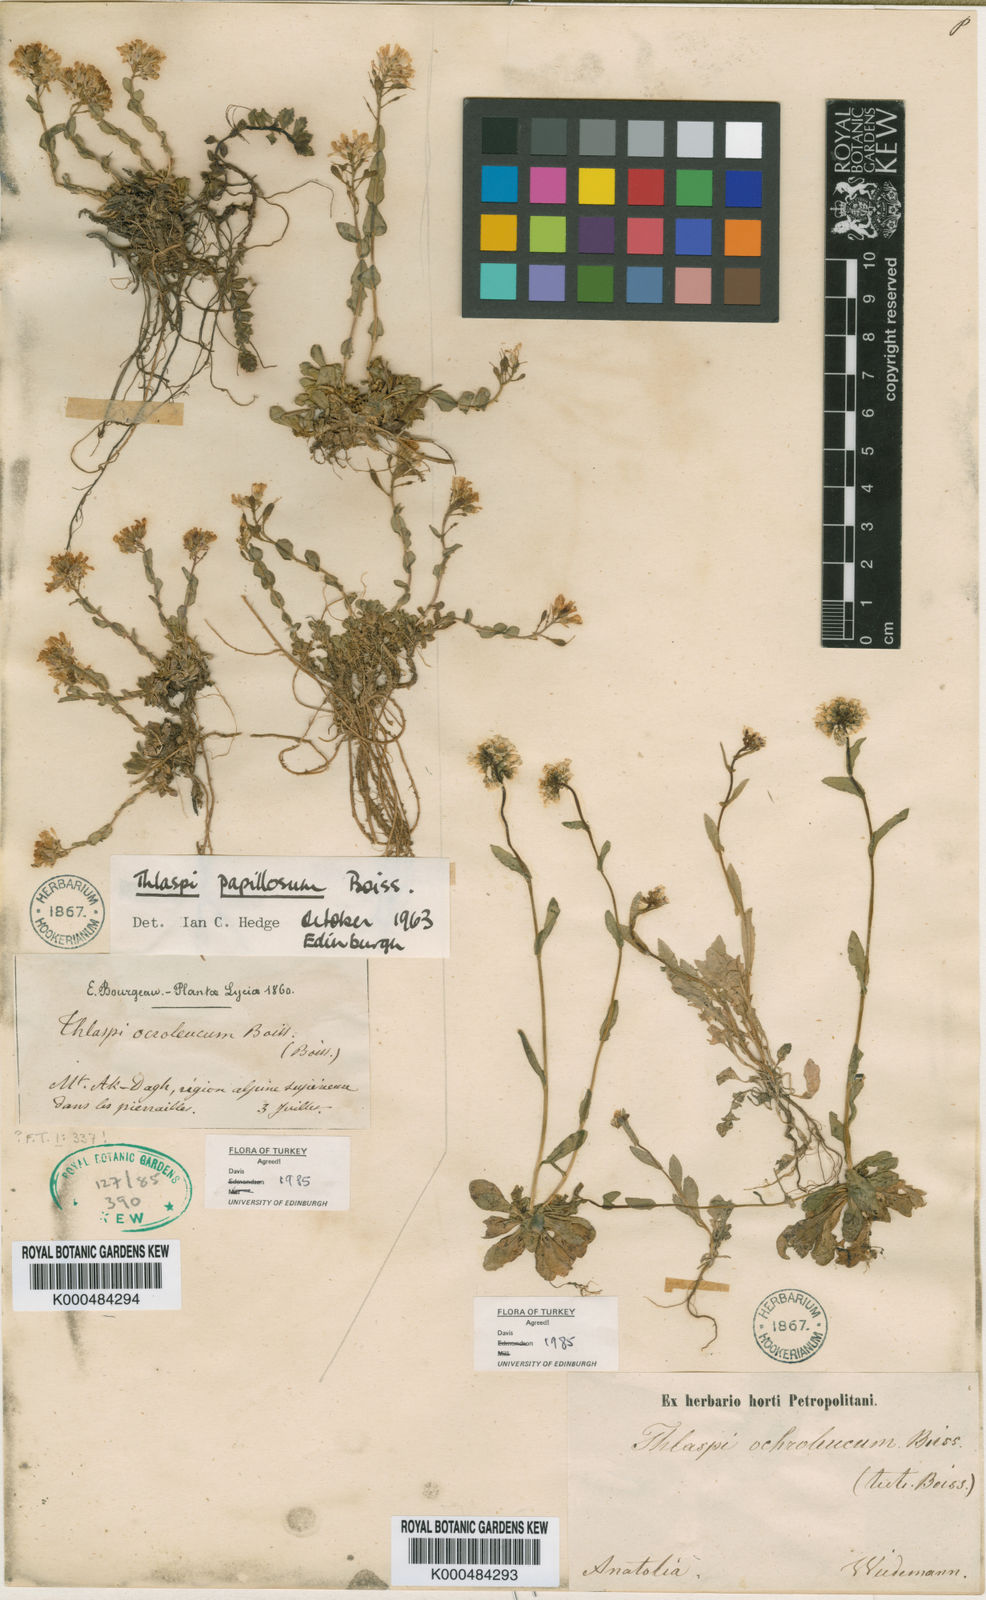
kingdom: Plantae
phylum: Tracheophyta
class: Magnoliopsida
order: Brassicales
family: Brassicaceae
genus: Noccaea
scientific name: Noccaea ochroleuca
